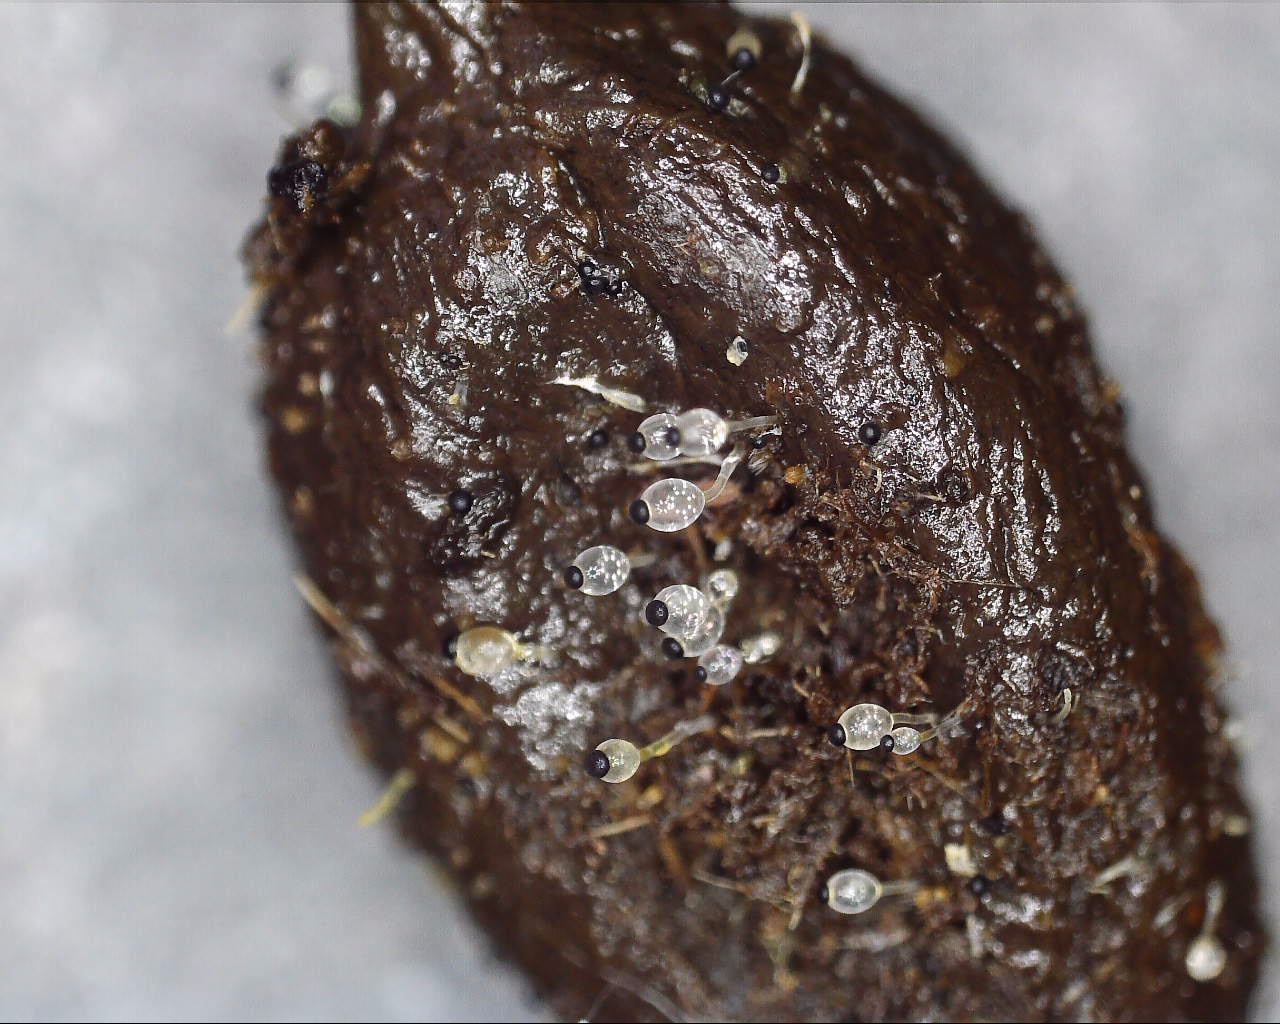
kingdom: Fungi
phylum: Mucoromycota
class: Mucoromycetes
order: Mucorales
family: Pilobolaceae
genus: Pilobolus
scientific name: Pilobolus kleinii
